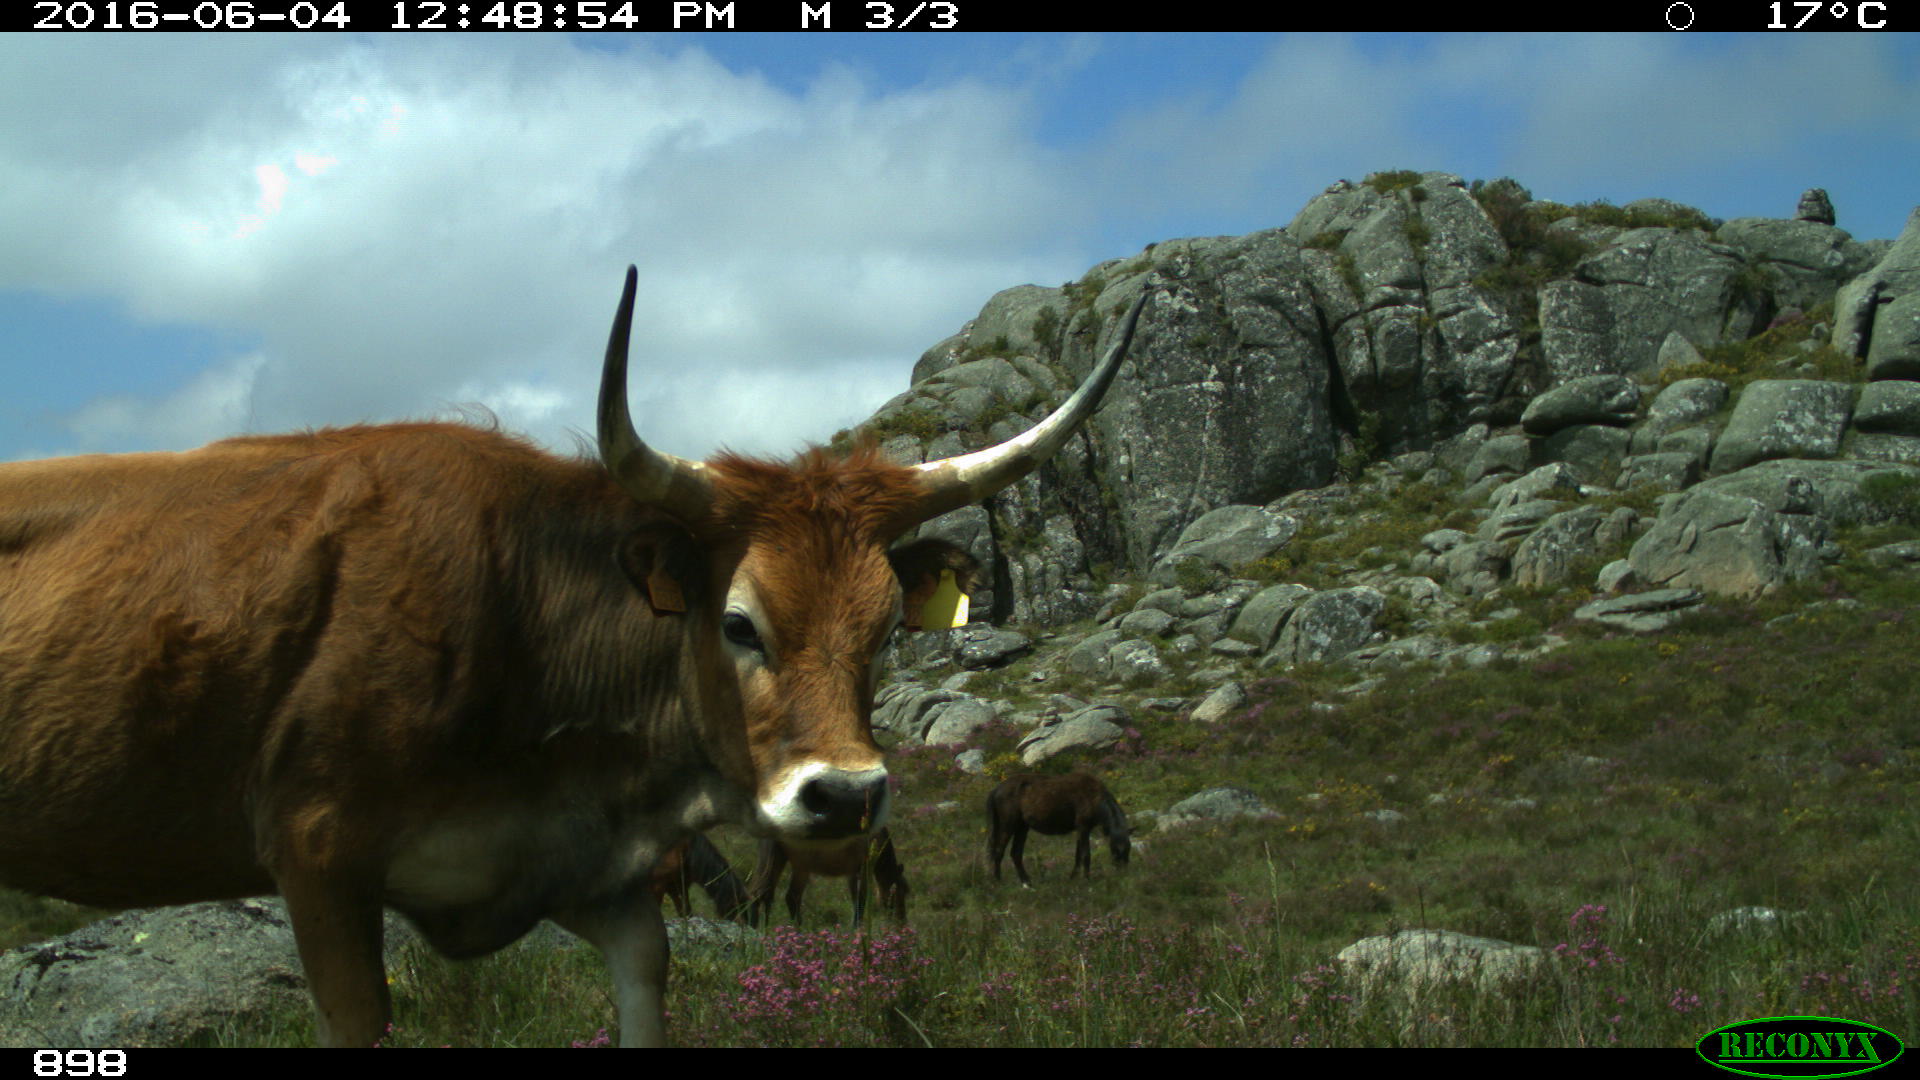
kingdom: Animalia
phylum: Chordata
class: Mammalia
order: Perissodactyla
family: Equidae
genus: Equus
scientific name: Equus caballus
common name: Horse
